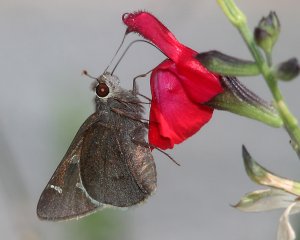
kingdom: Animalia
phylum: Arthropoda
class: Insecta
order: Lepidoptera
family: Hesperiidae
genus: Atrytonopsis
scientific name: Atrytonopsis lunus
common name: Moon-marked Skipper
